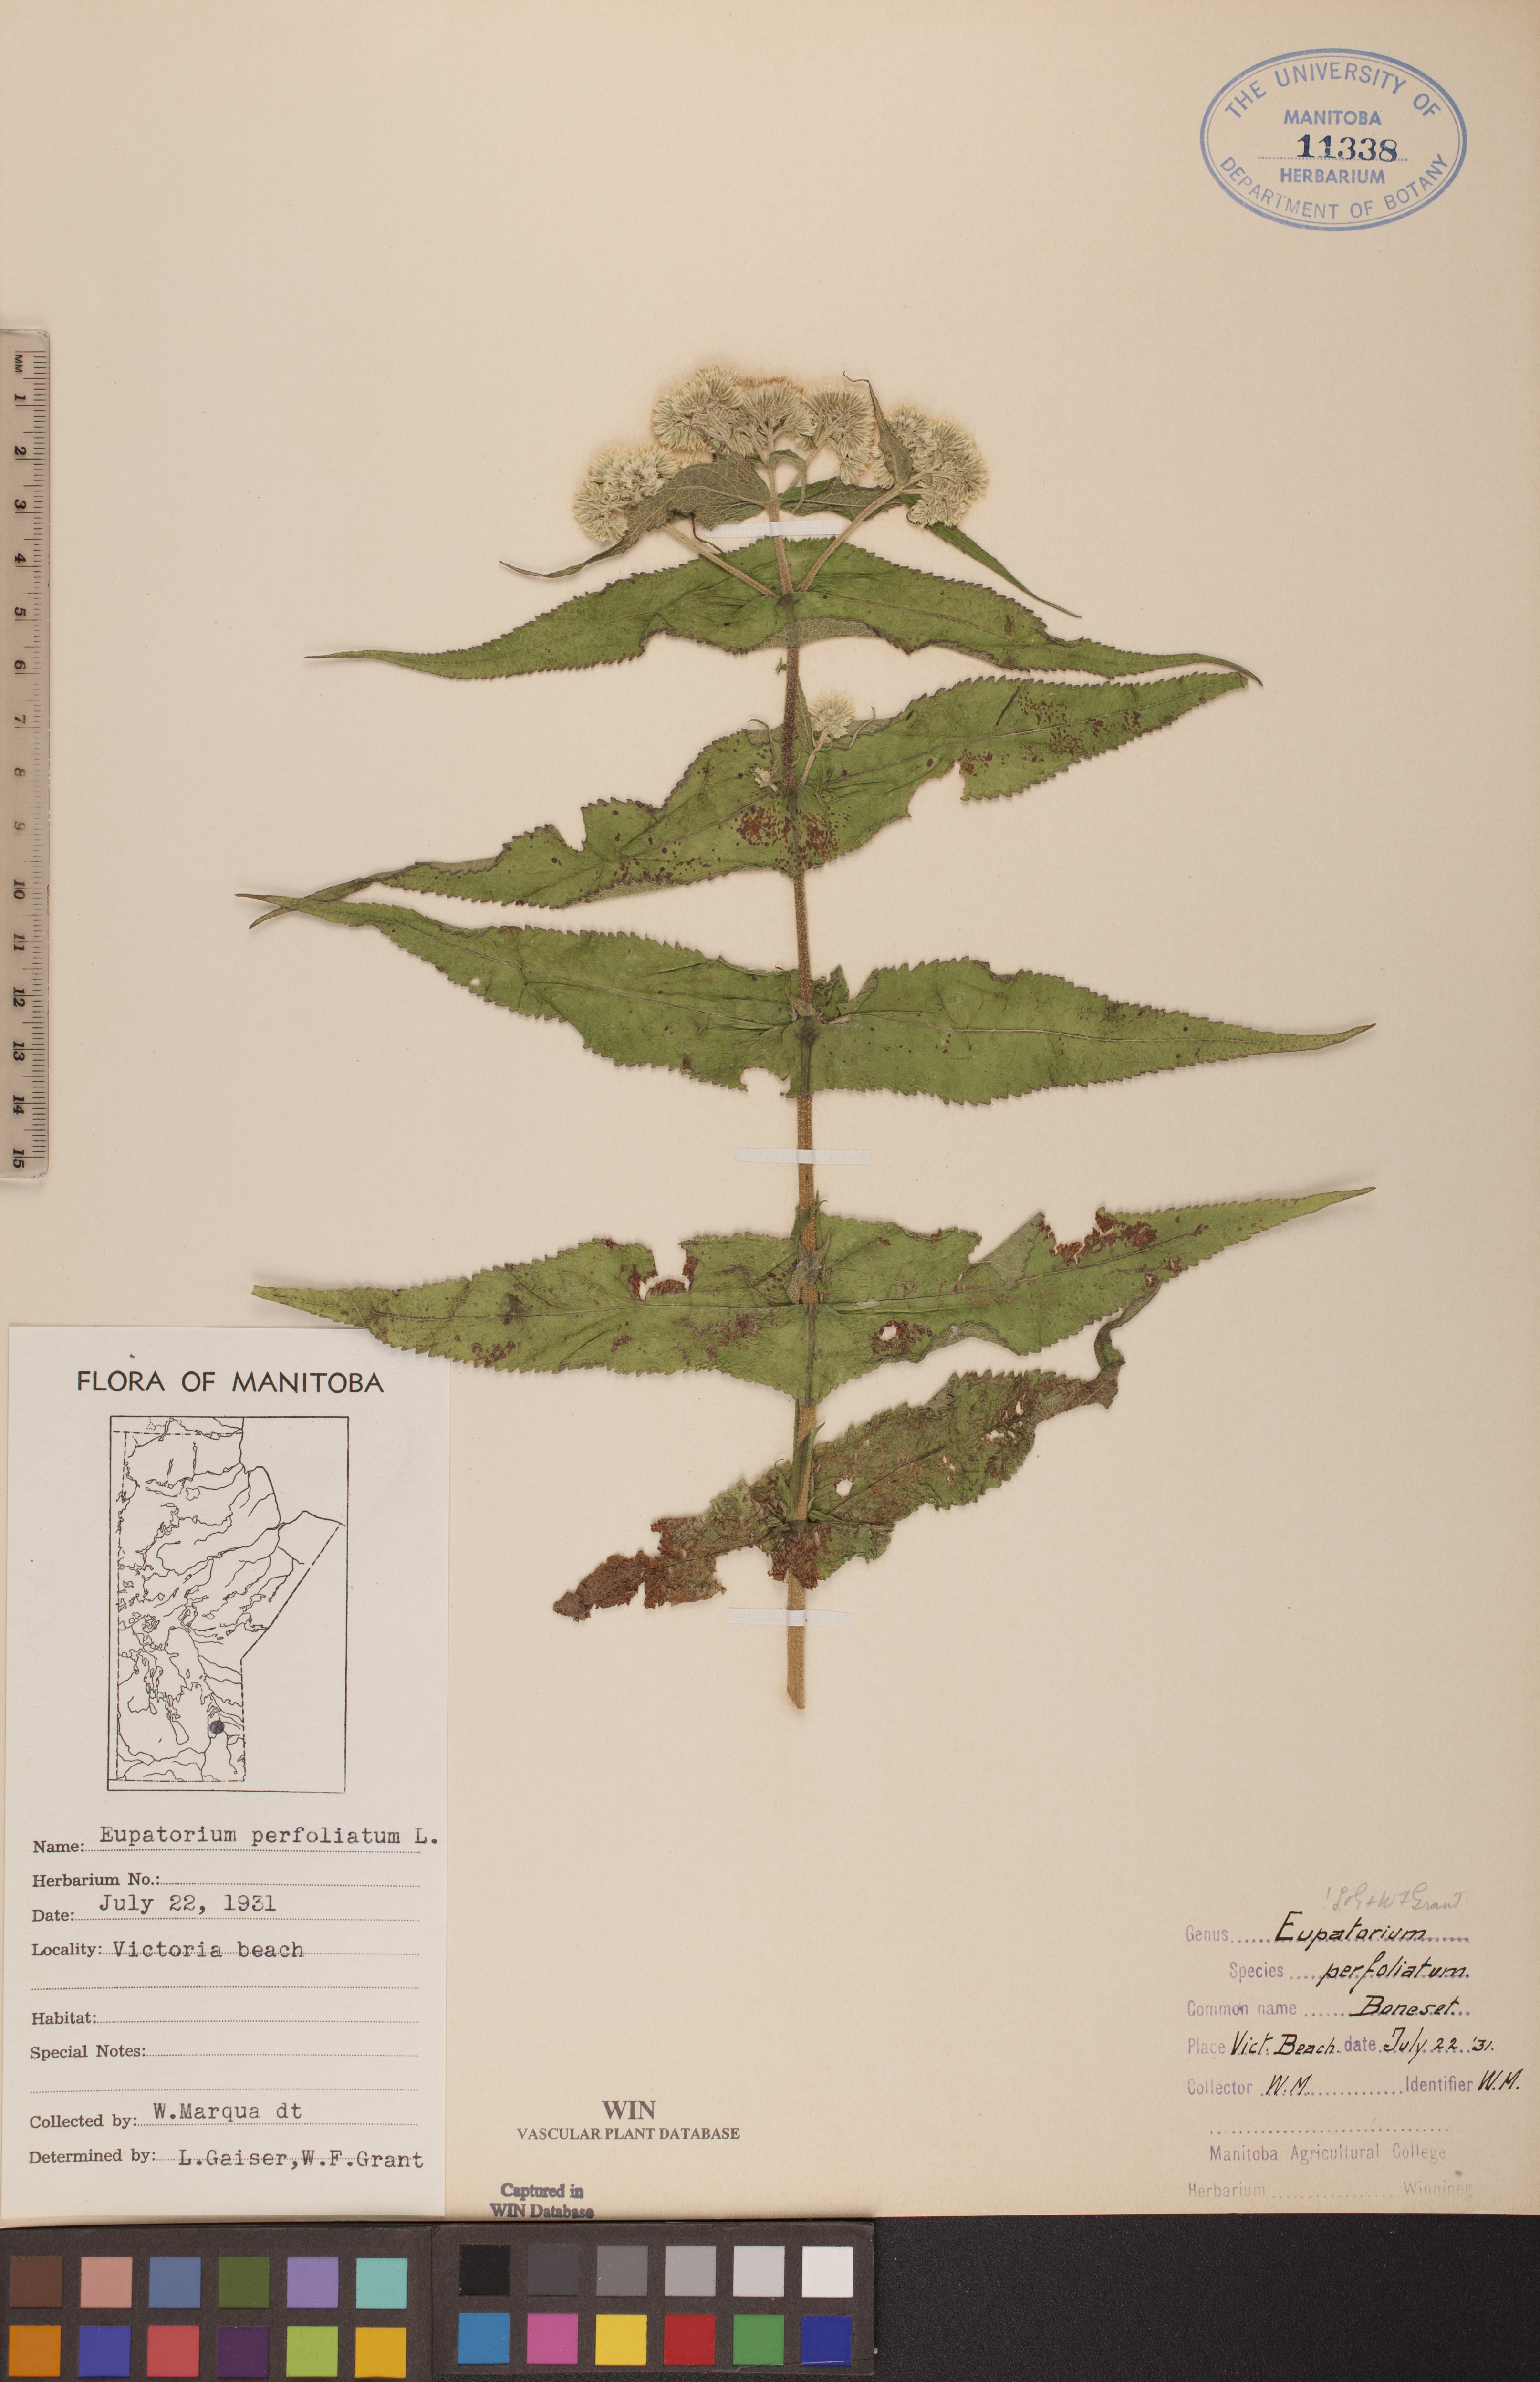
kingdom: Plantae
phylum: Tracheophyta
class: Magnoliopsida
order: Asterales
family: Asteraceae
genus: Eupatorium
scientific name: Eupatorium perfoliatum
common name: Boneset
